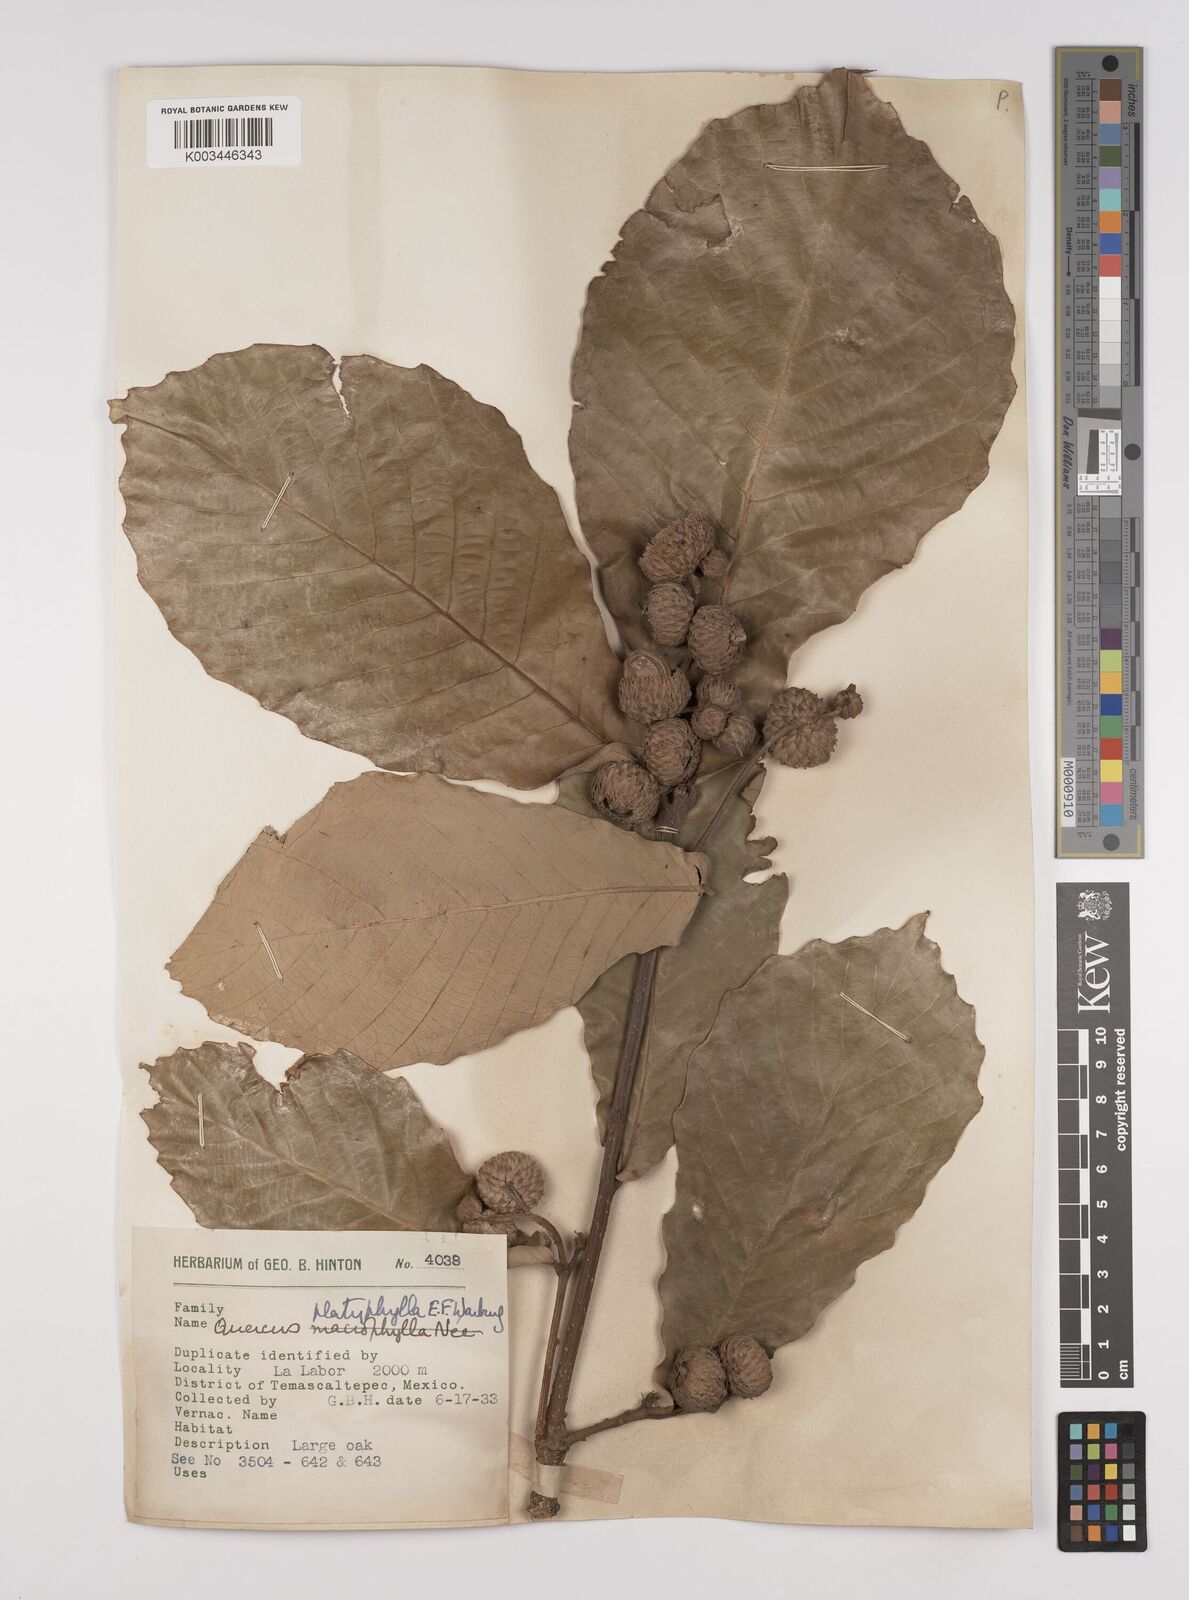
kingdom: Plantae
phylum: Tracheophyta
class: Magnoliopsida
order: Fagales
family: Fagaceae
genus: Quercus
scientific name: Quercus
